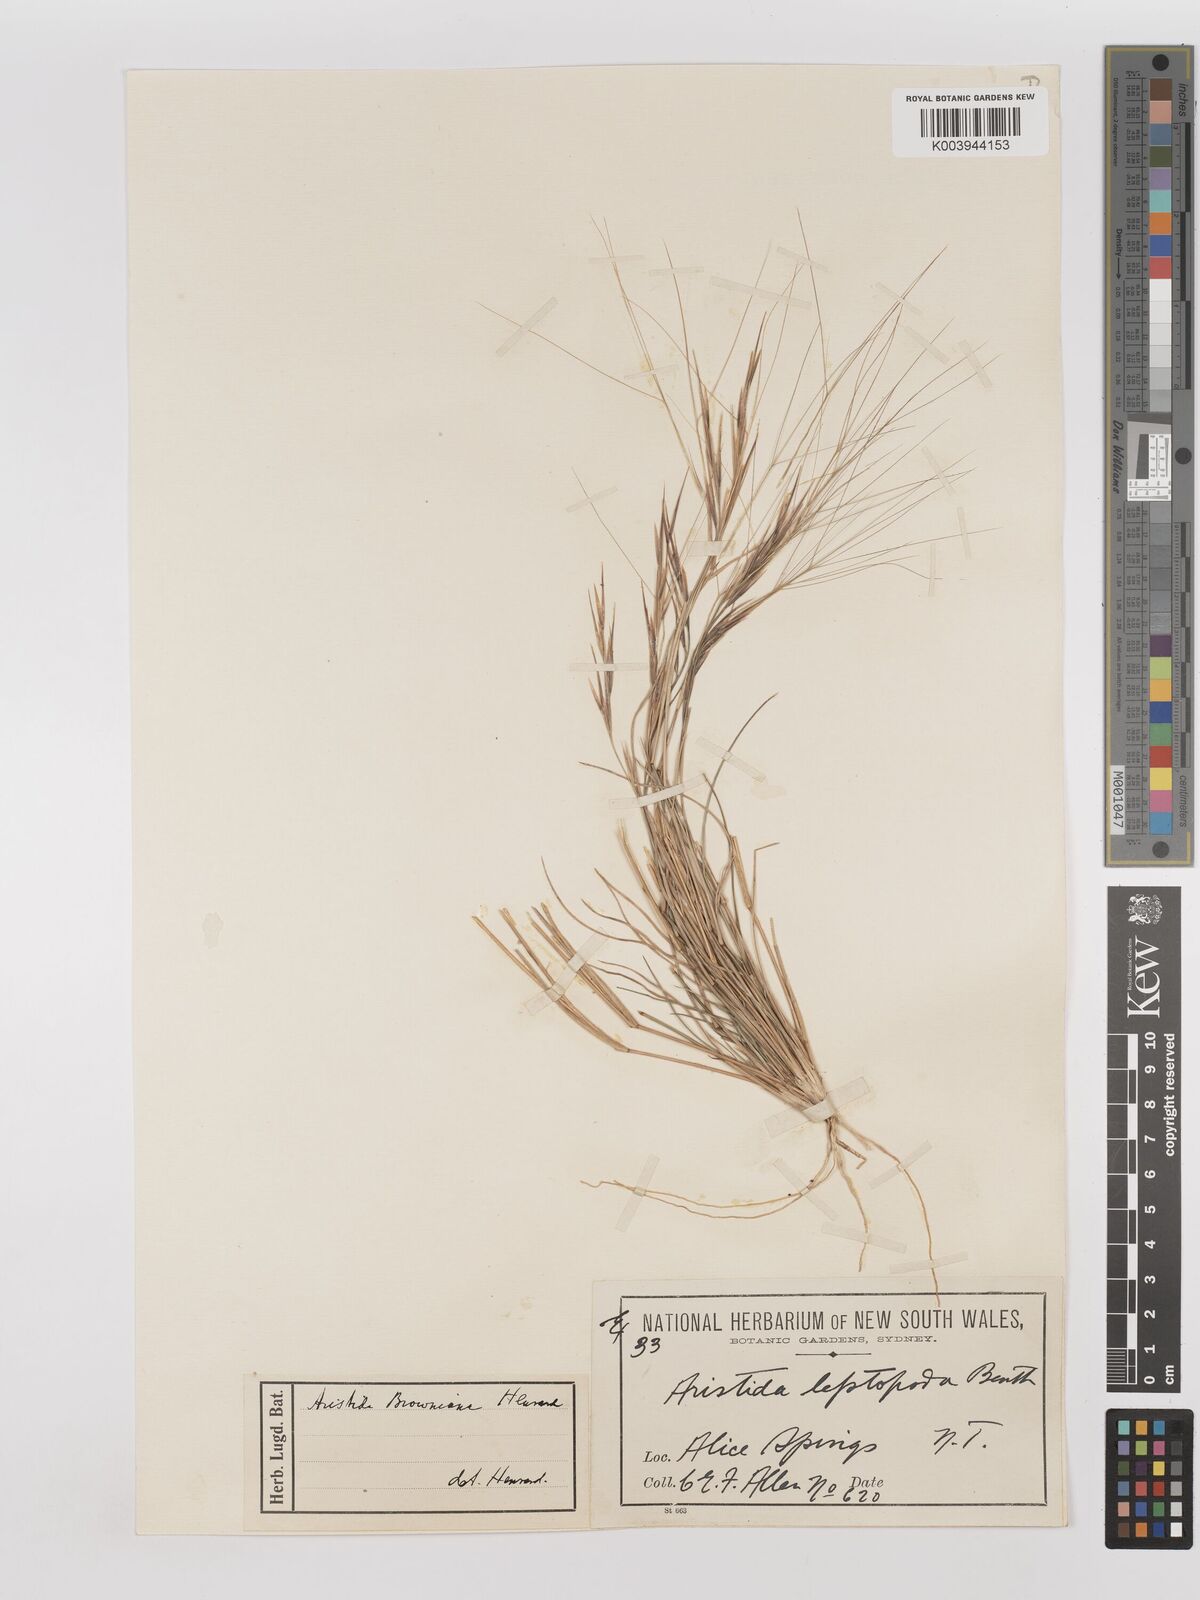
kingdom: Plantae
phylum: Tracheophyta
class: Liliopsida
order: Poales
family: Poaceae
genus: Aristida
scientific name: Aristida holathera
